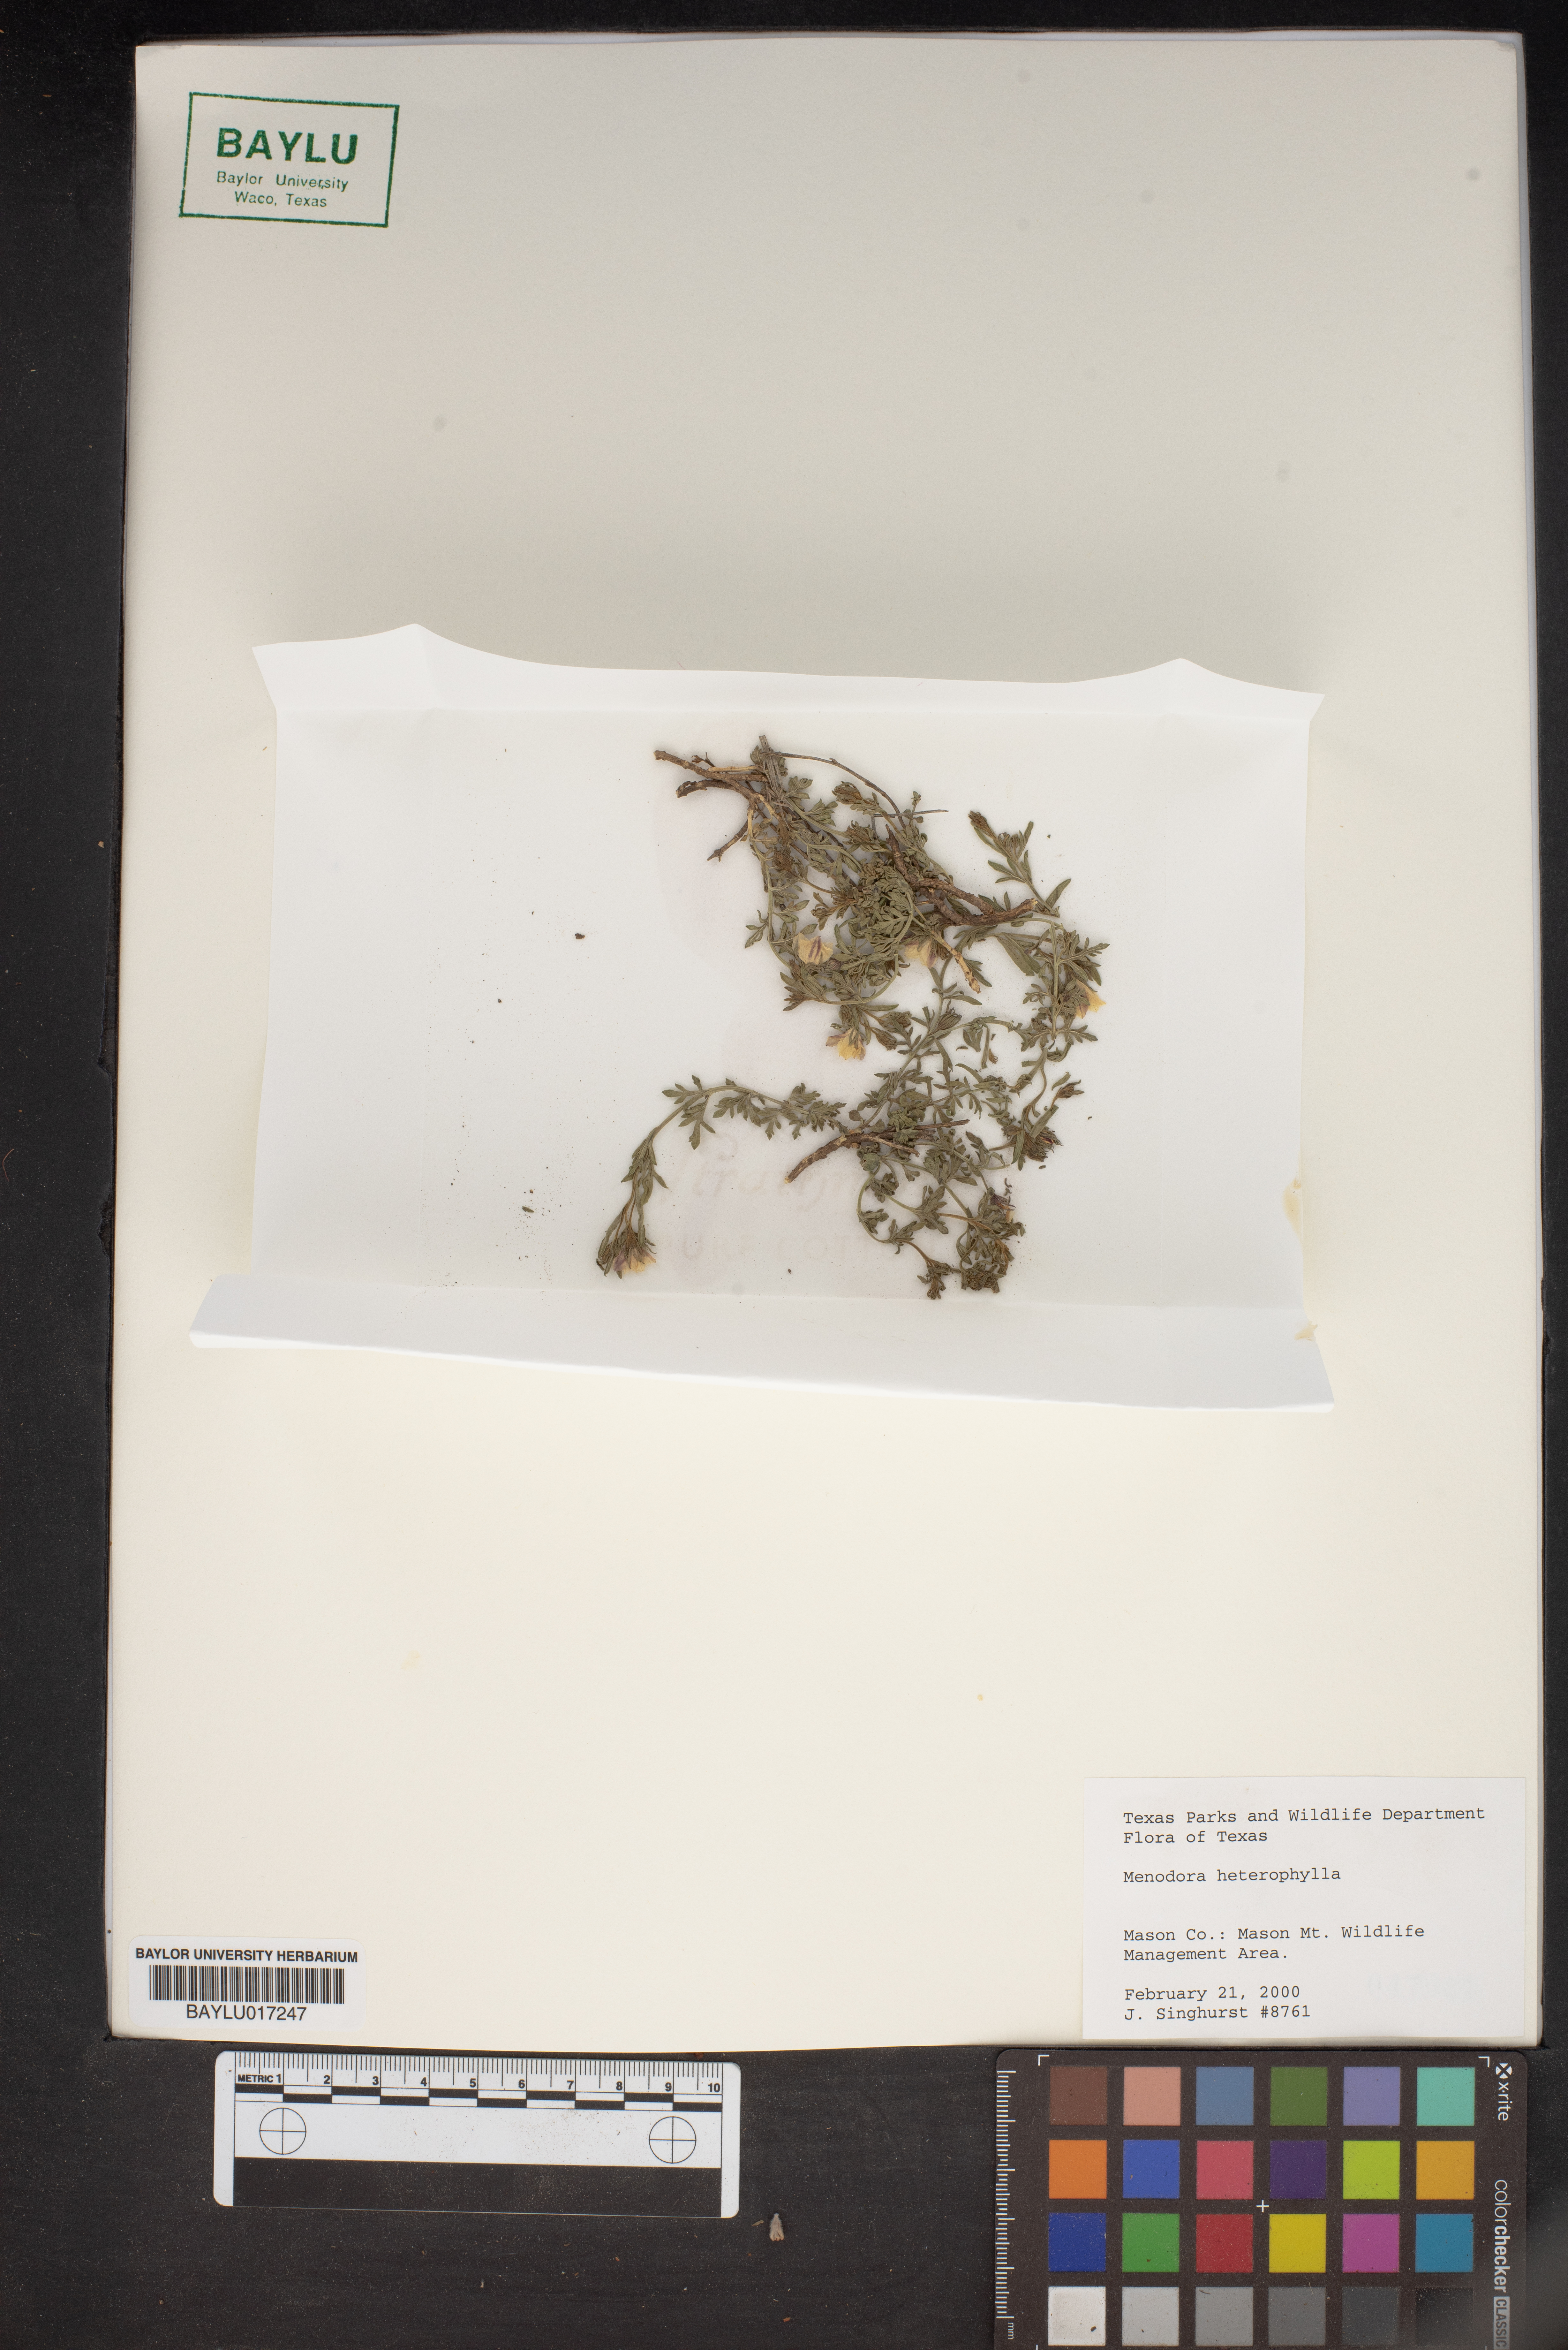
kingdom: Plantae
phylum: Tracheophyta
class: Magnoliopsida
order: Lamiales
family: Oleaceae
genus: Menodora
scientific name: Menodora heterophylla
